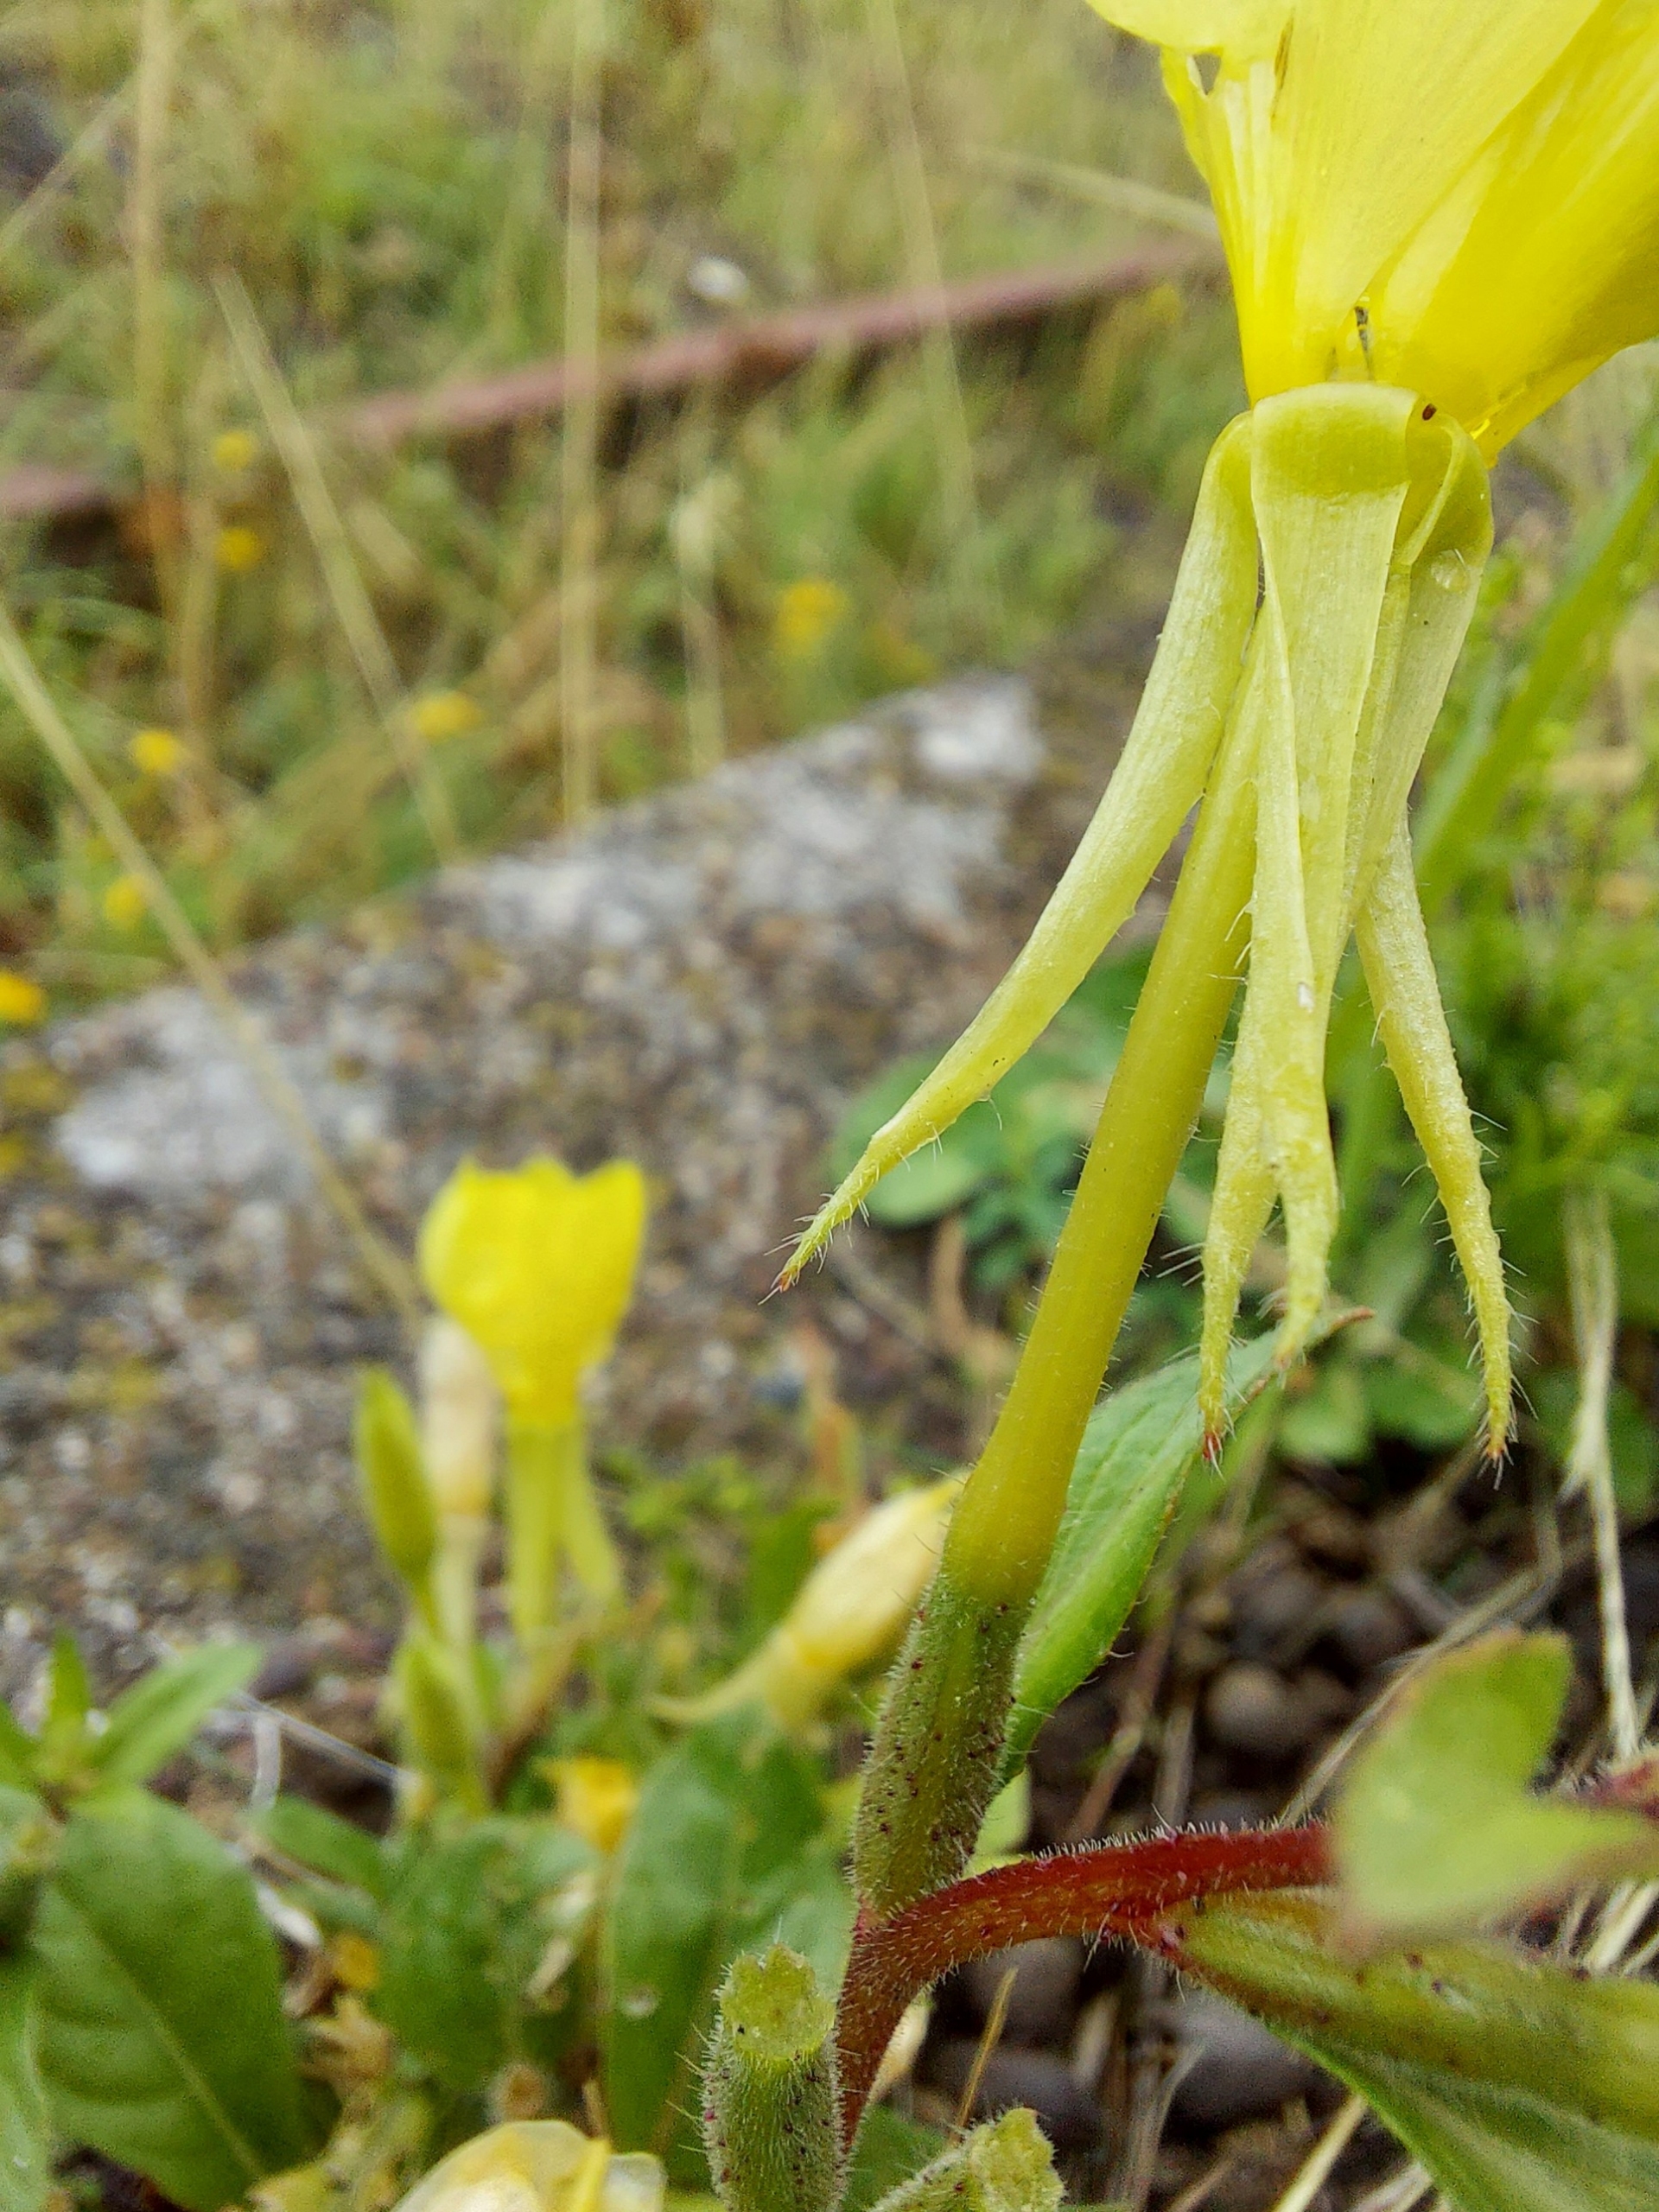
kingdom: Plantae
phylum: Tracheophyta
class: Magnoliopsida
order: Myrtales
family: Onagraceae
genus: Oenothera
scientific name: Oenothera biennis
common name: Rødfrugtet natlys
